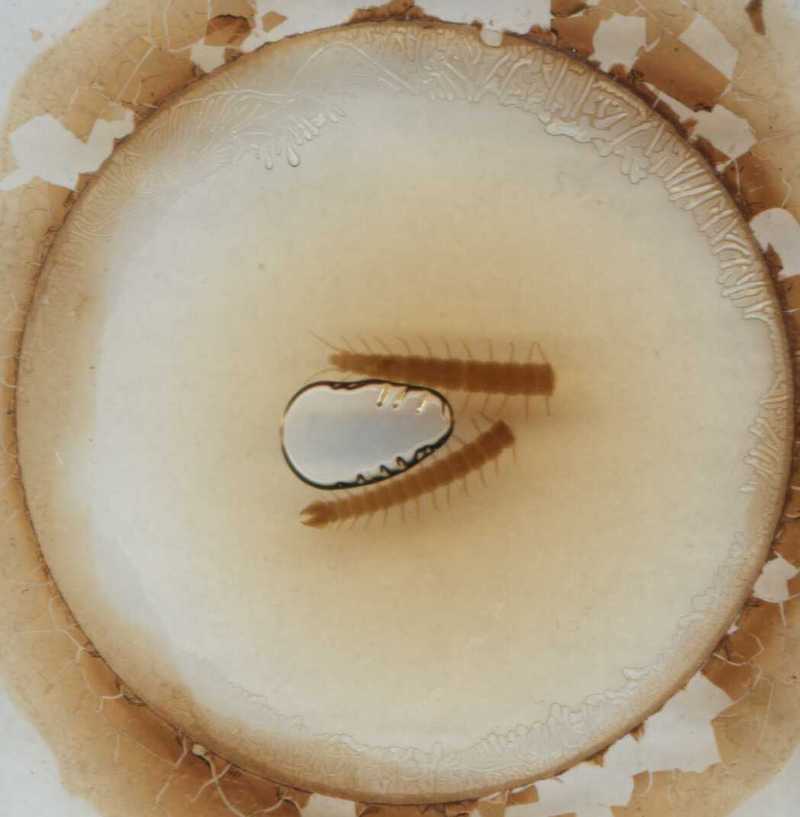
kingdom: Animalia
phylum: Arthropoda
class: Chilopoda
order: Geophilomorpha
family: Aphilodontidae
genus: Aphilodon
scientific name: Aphilodon porosus
